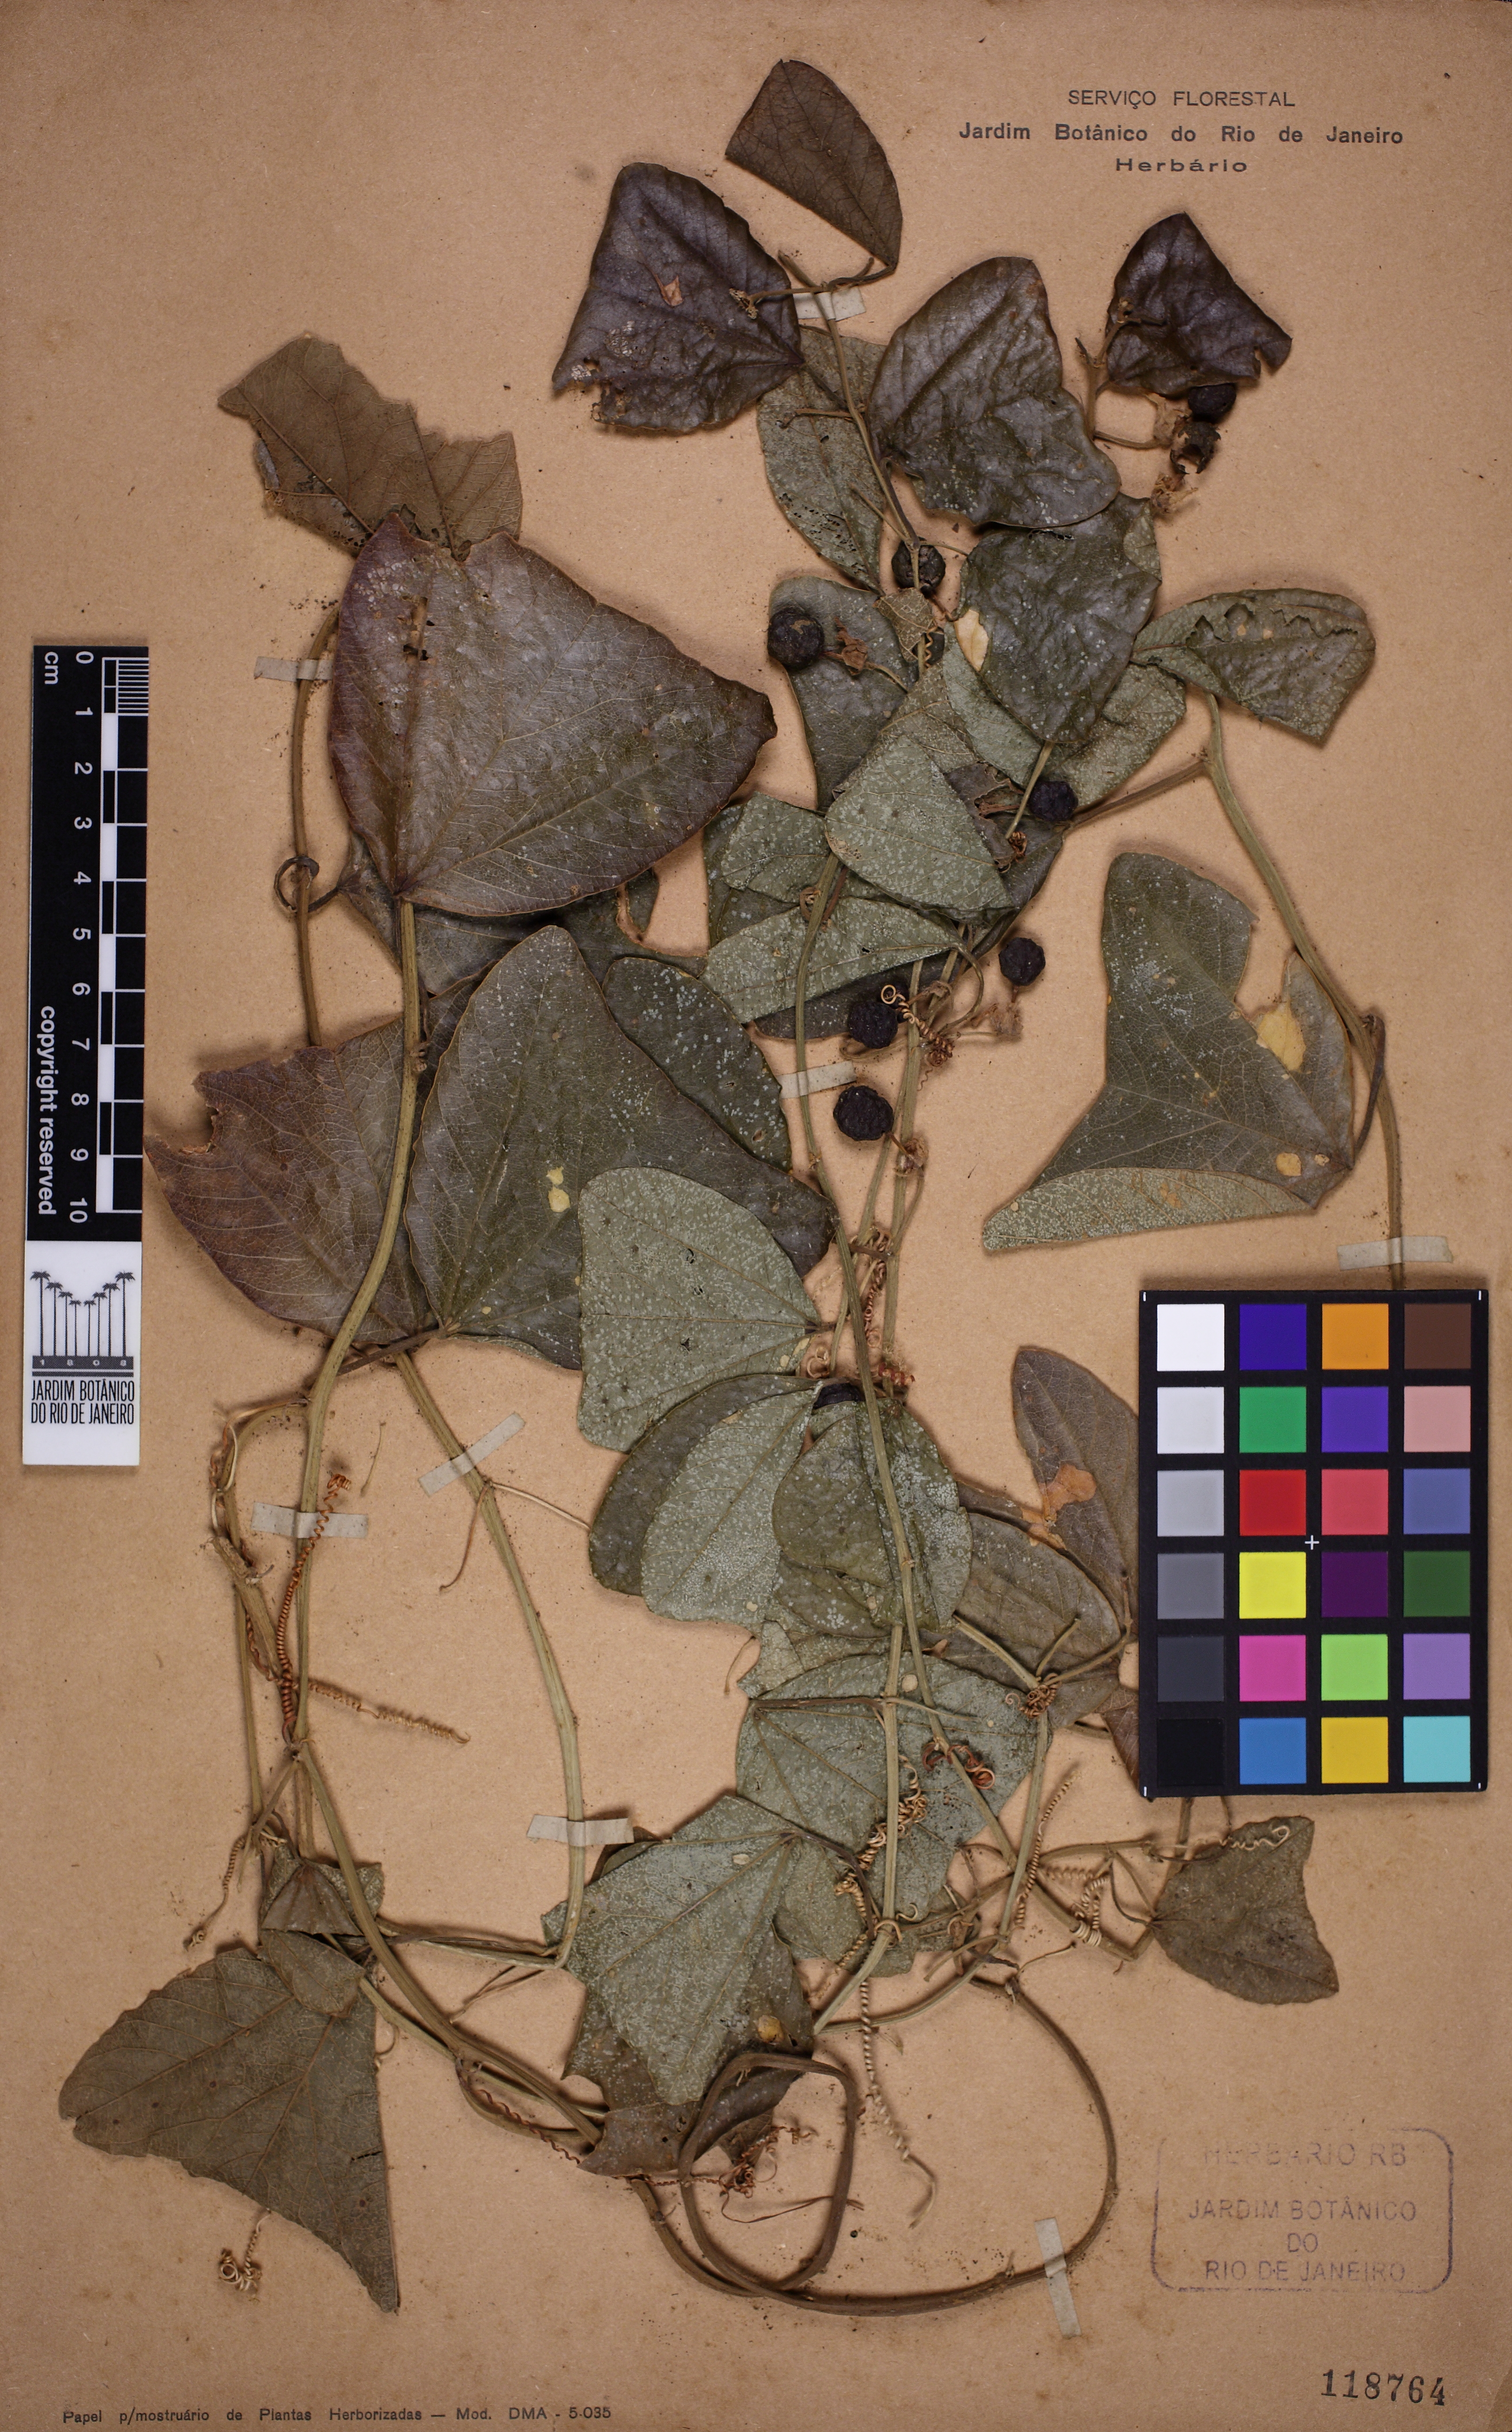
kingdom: Plantae
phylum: Tracheophyta
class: Magnoliopsida
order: Malpighiales
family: Passifloraceae
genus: Passiflora
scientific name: Passiflora pohlii
